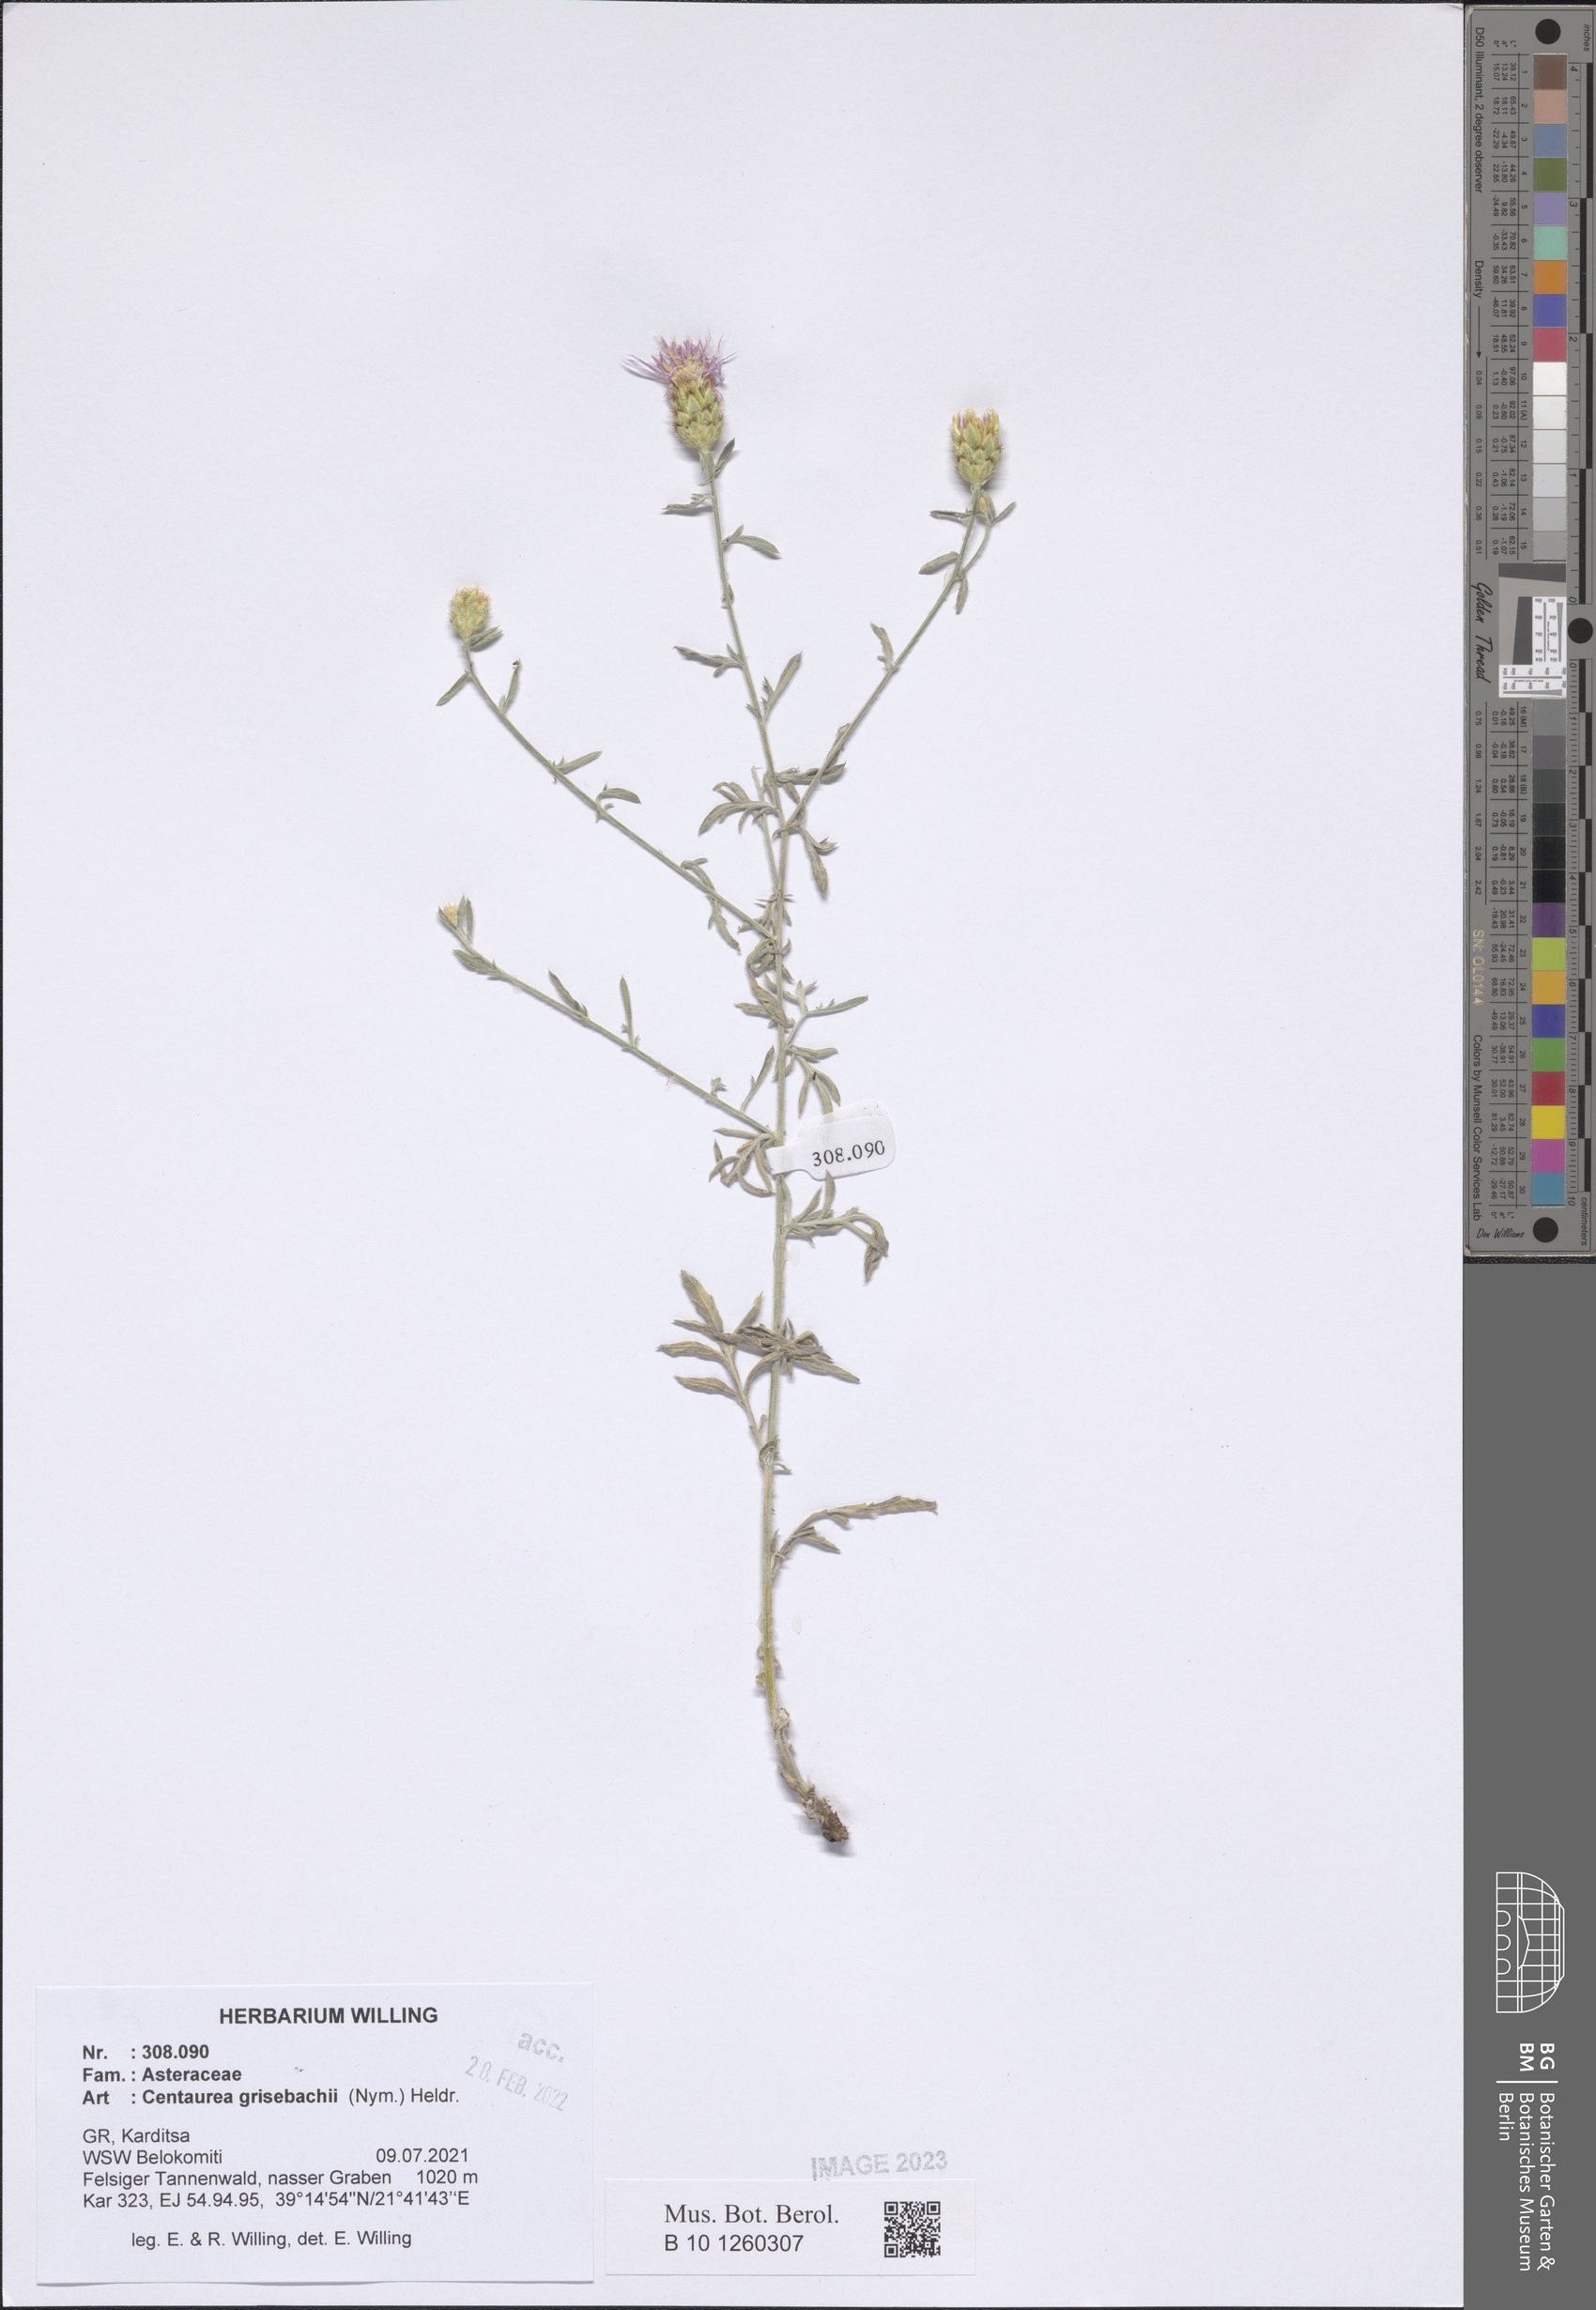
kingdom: Plantae
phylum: Tracheophyta
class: Magnoliopsida
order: Asterales
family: Asteraceae
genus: Centaurea
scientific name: Centaurea grisebachii
